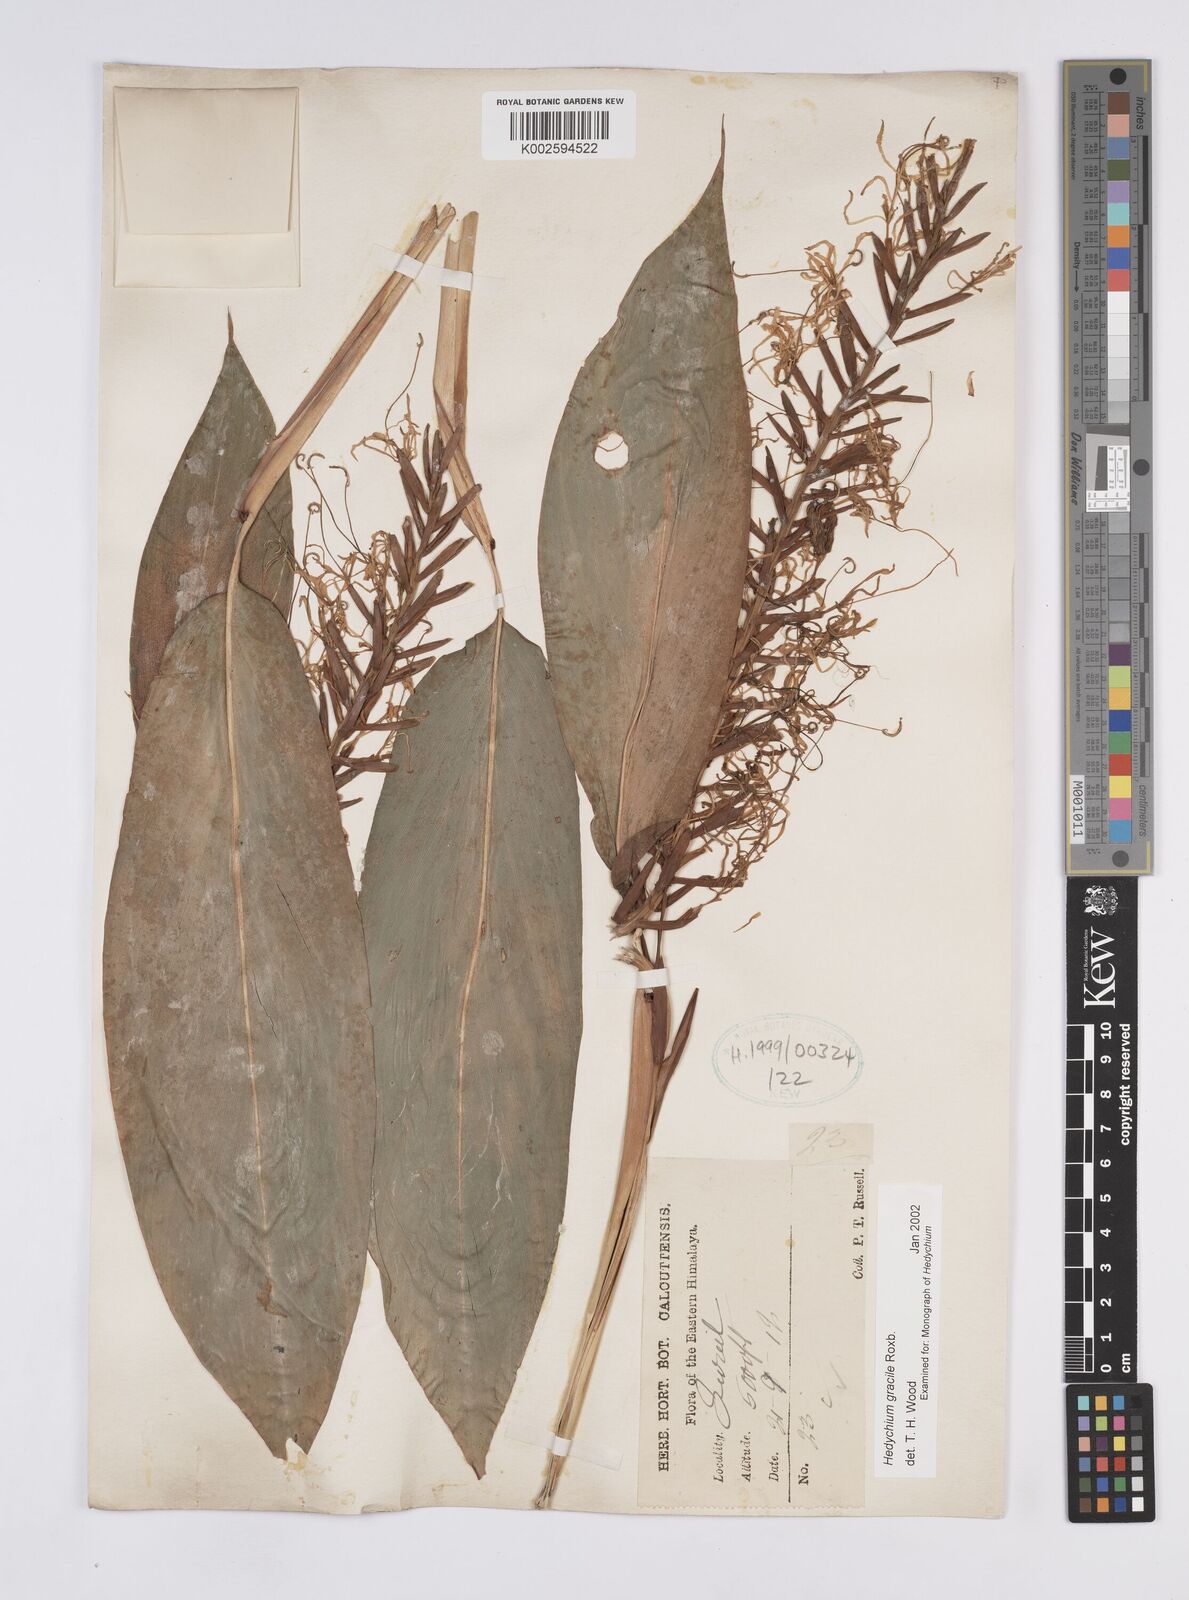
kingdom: Plantae
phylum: Tracheophyta
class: Liliopsida
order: Zingiberales
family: Zingiberaceae
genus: Hedychium
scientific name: Hedychium gracile
